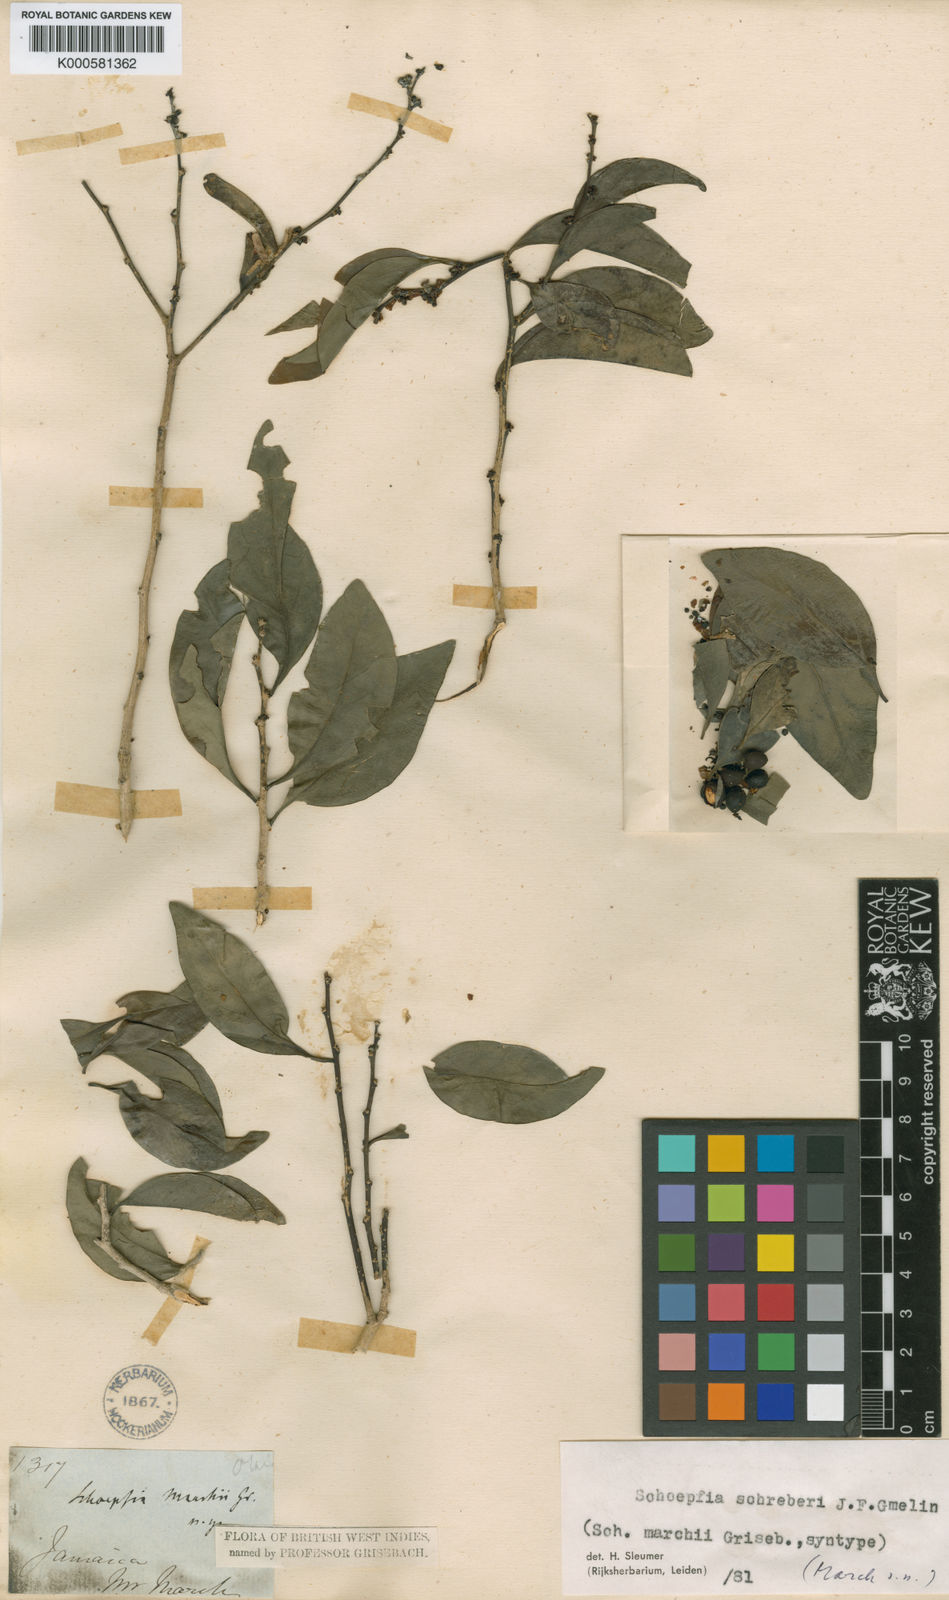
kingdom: Plantae
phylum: Tracheophyta
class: Magnoliopsida
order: Santalales
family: Schoepfiaceae
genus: Schoepfia
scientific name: Schoepfia schreberi
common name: Gulf graytwig
